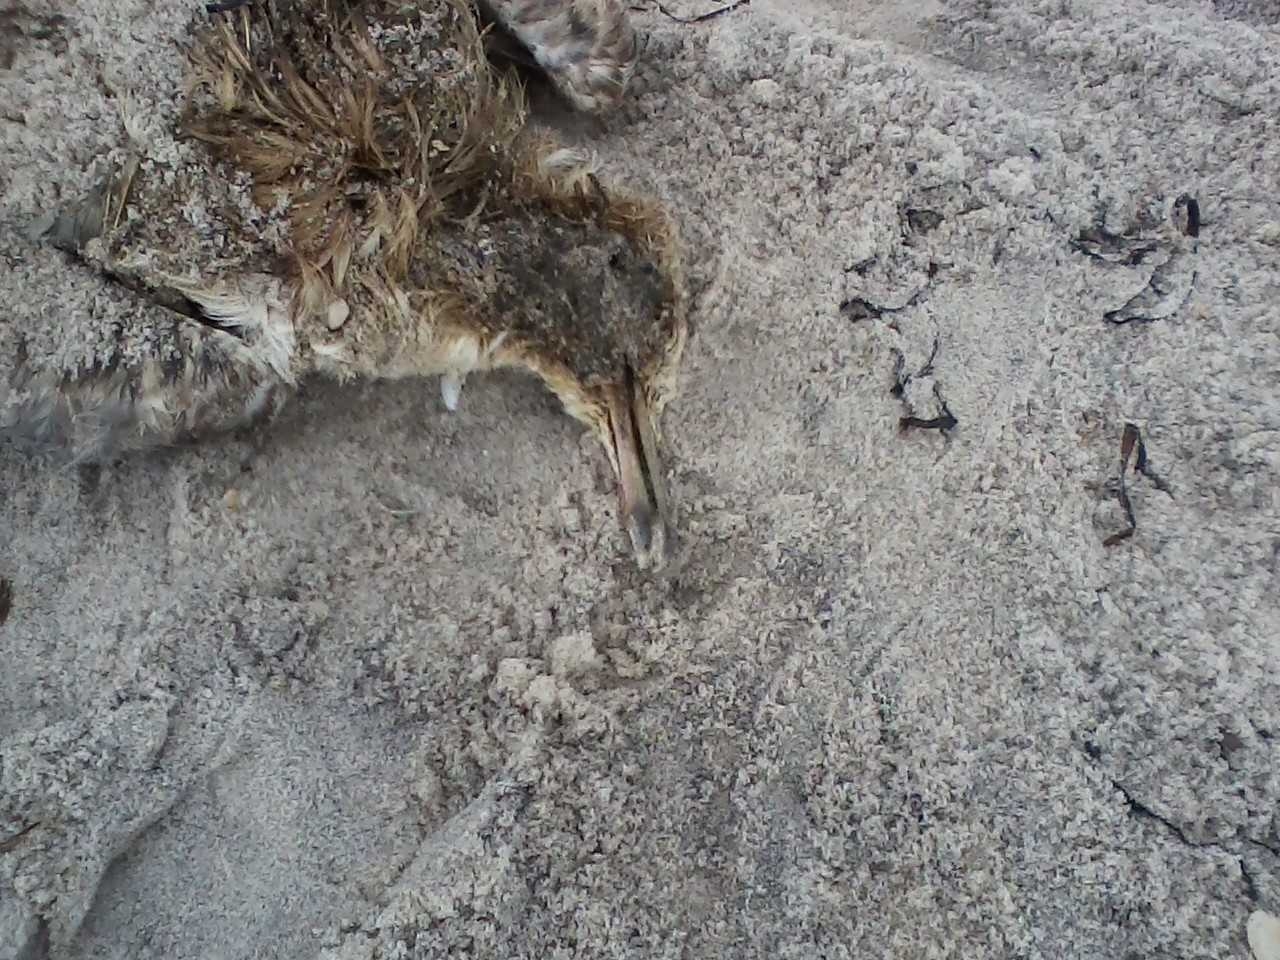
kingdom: Animalia
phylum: Chordata
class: Aves
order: Charadriiformes
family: Scolopacidae
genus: Calidris
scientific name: Calidris alba
